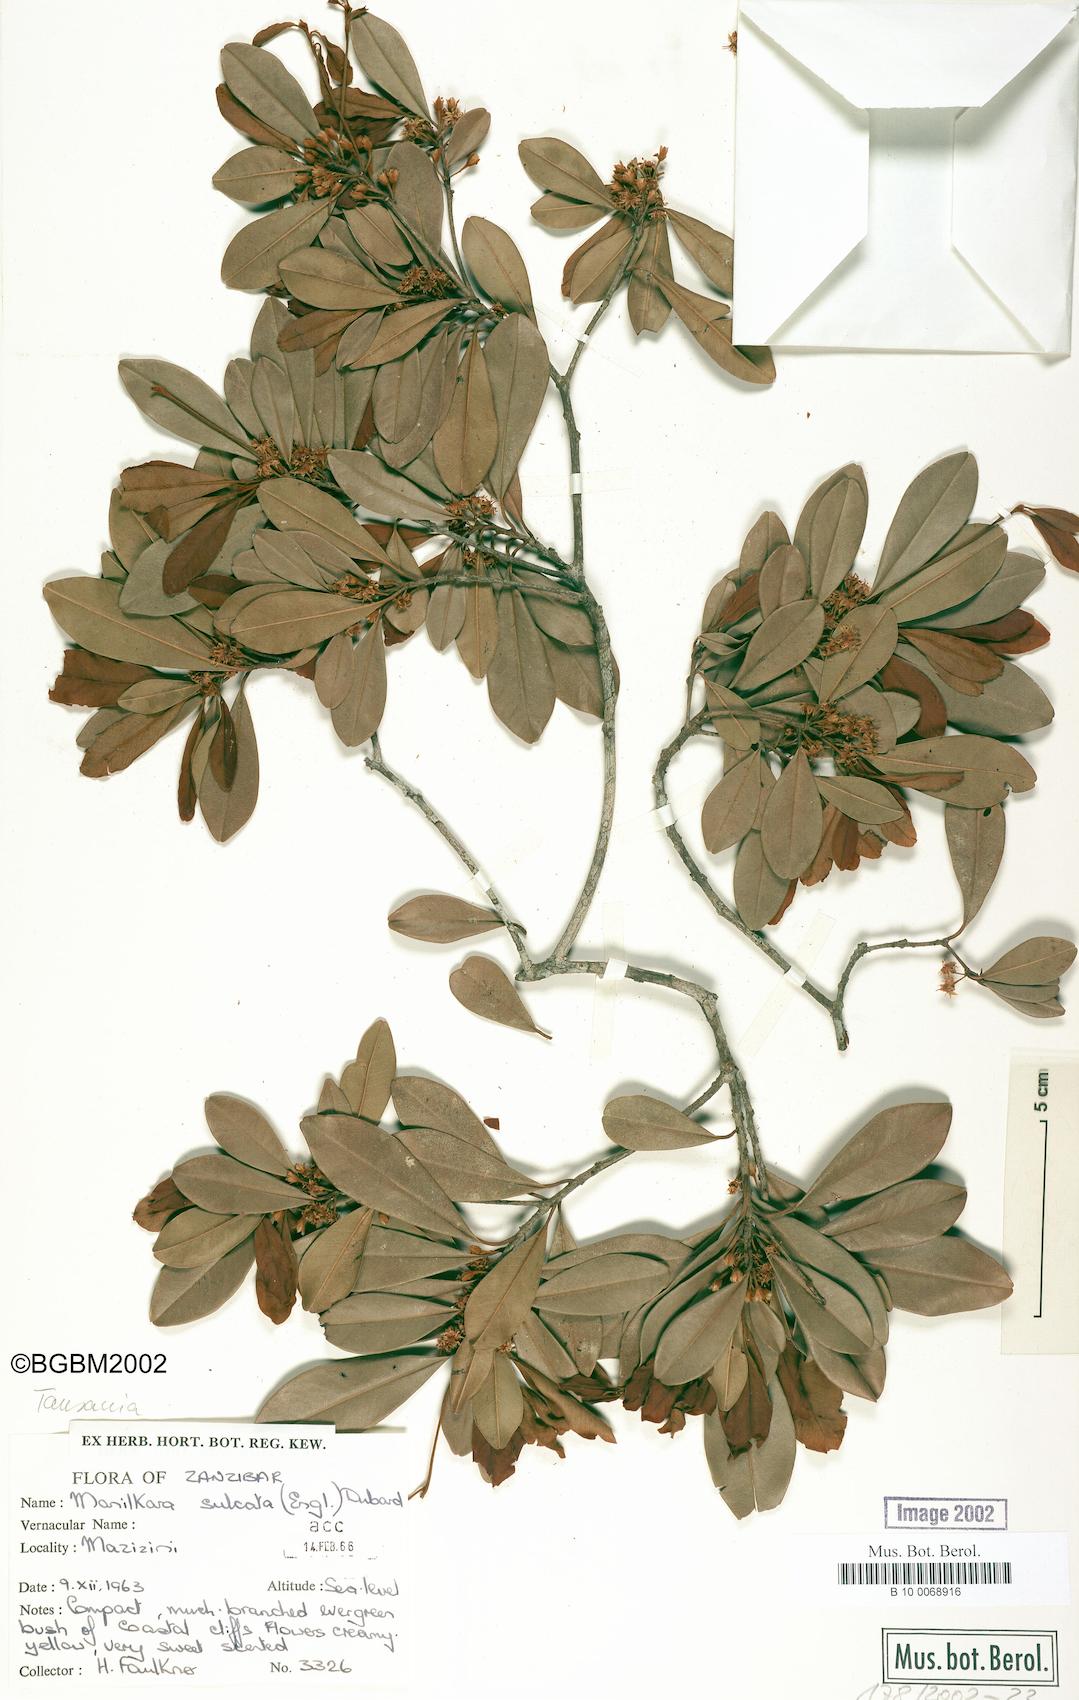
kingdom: Plantae
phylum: Tracheophyta
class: Magnoliopsida
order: Ericales
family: Sapotaceae
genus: Manilkara
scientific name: Manilkara sulcata
